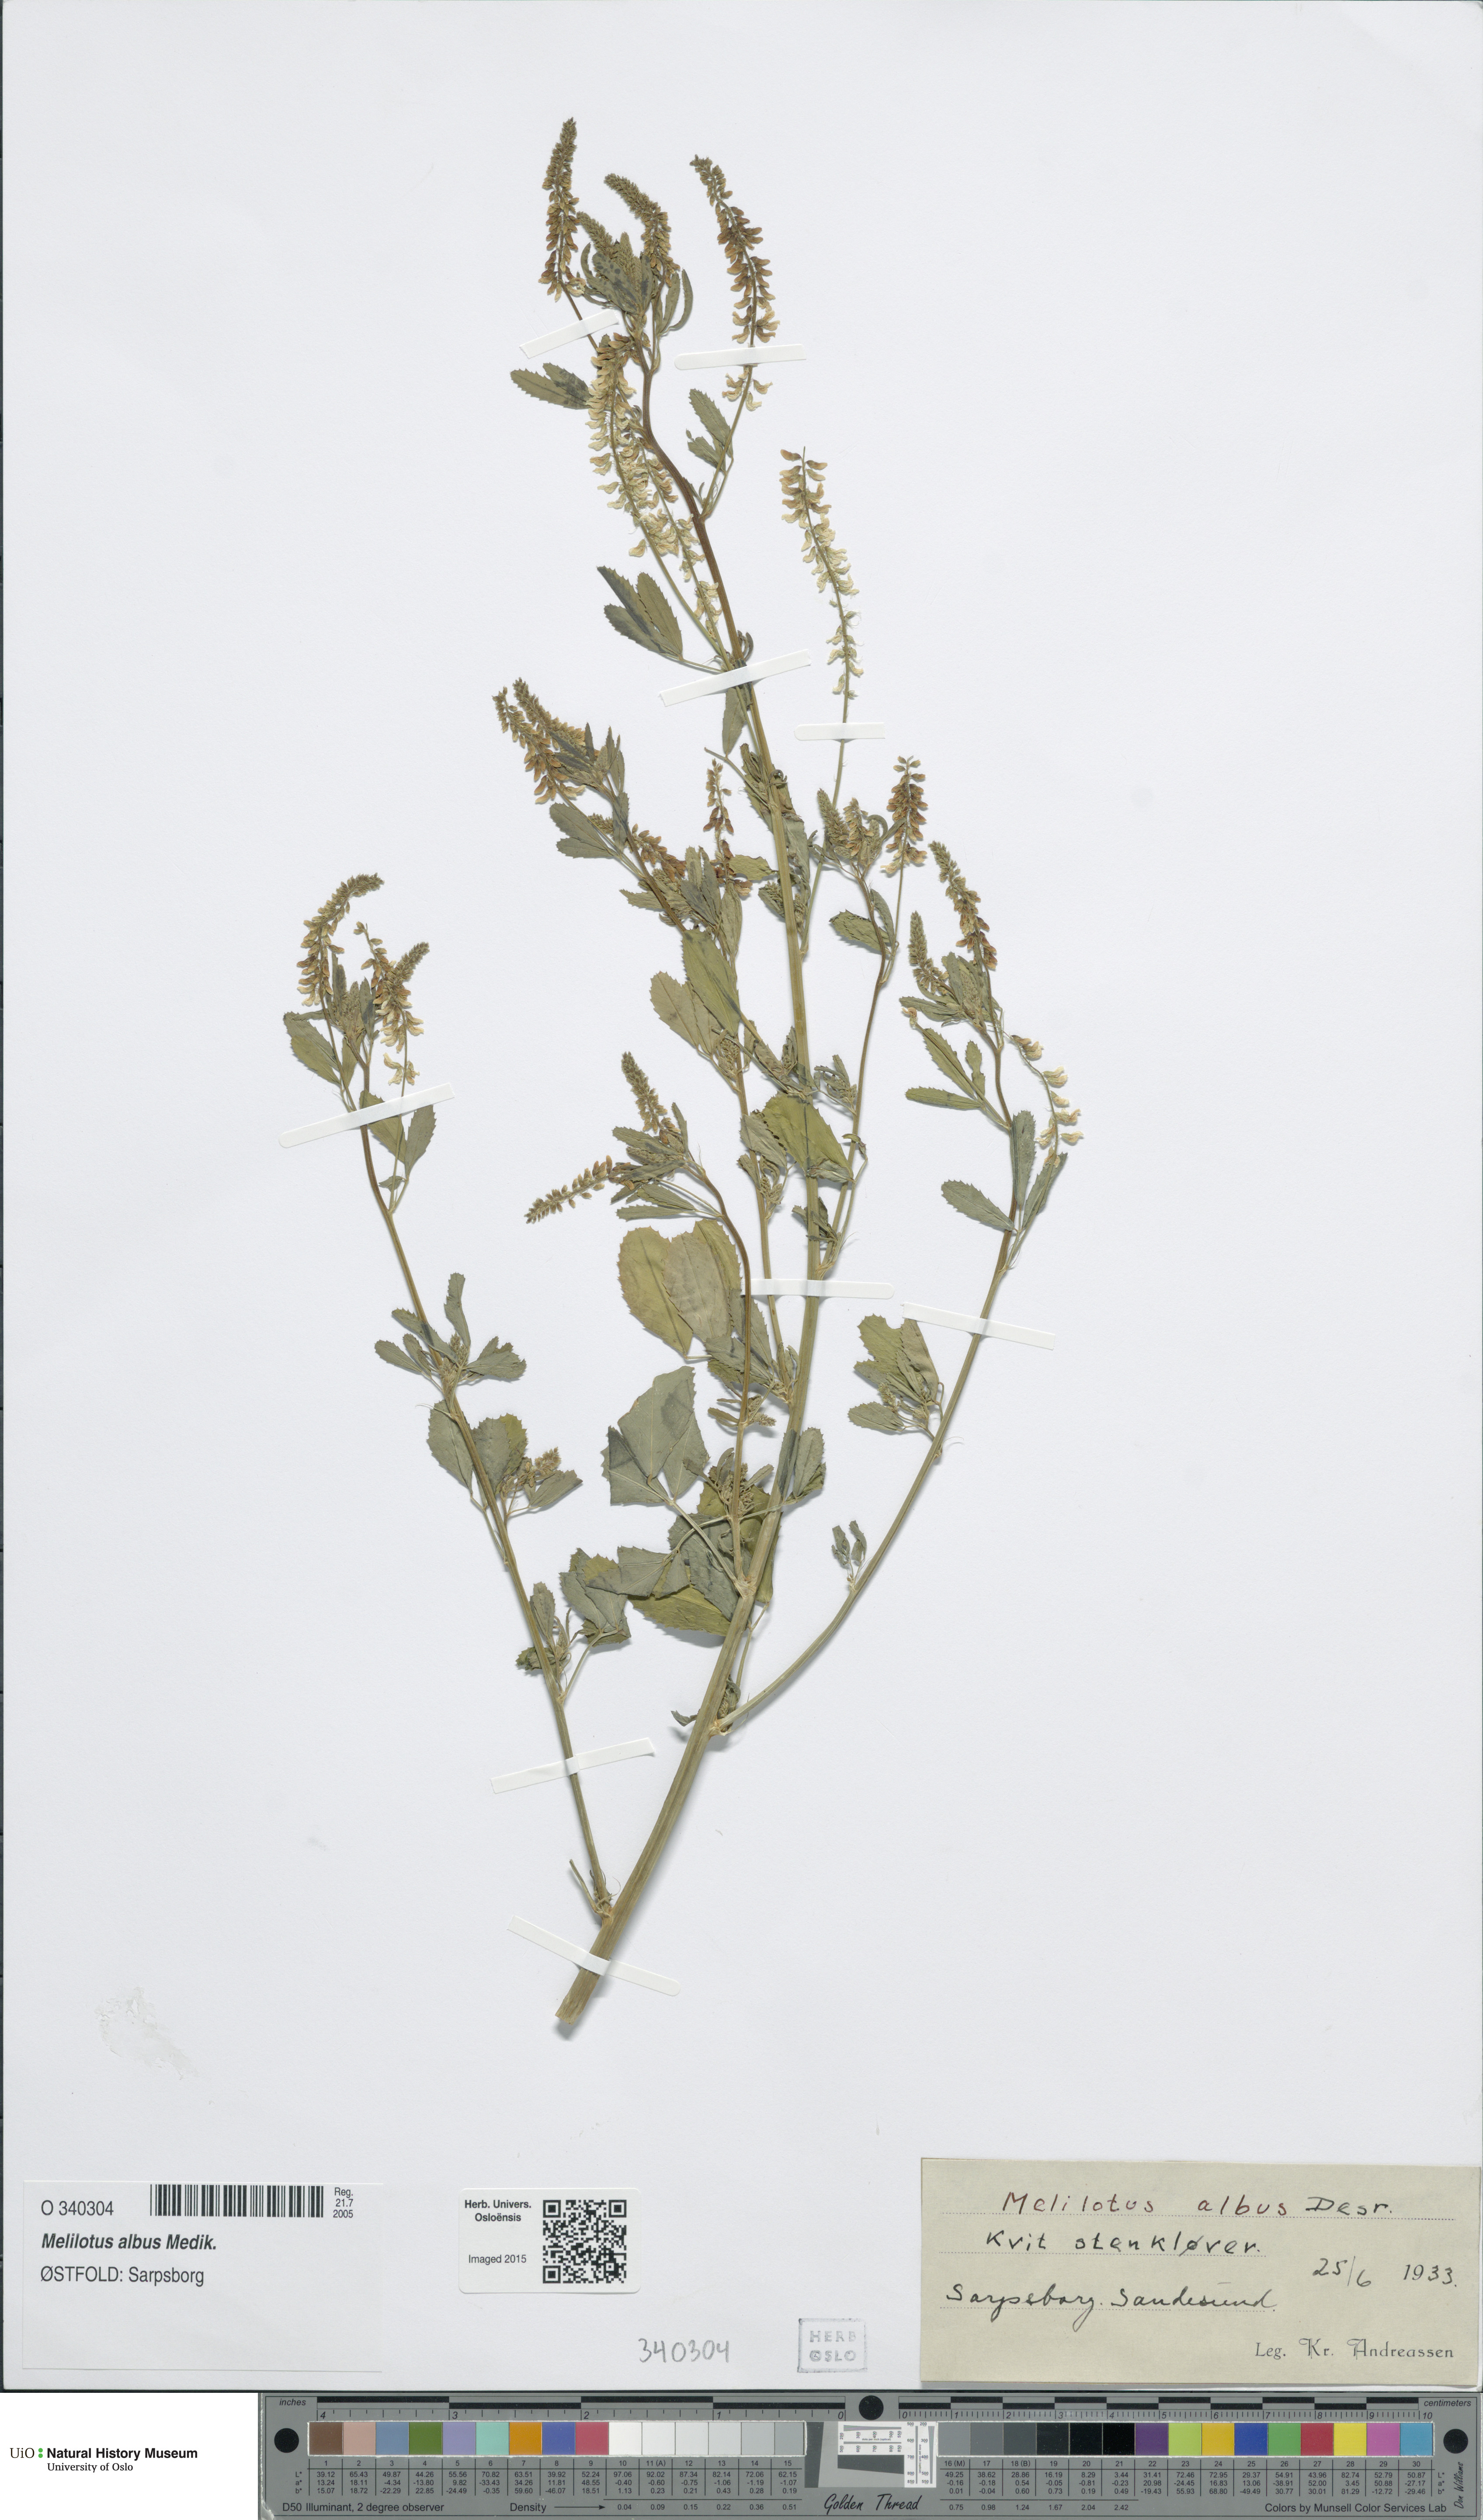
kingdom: Plantae
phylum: Tracheophyta
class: Magnoliopsida
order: Fabales
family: Fabaceae
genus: Melilotus
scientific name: Melilotus albus
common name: White melilot
